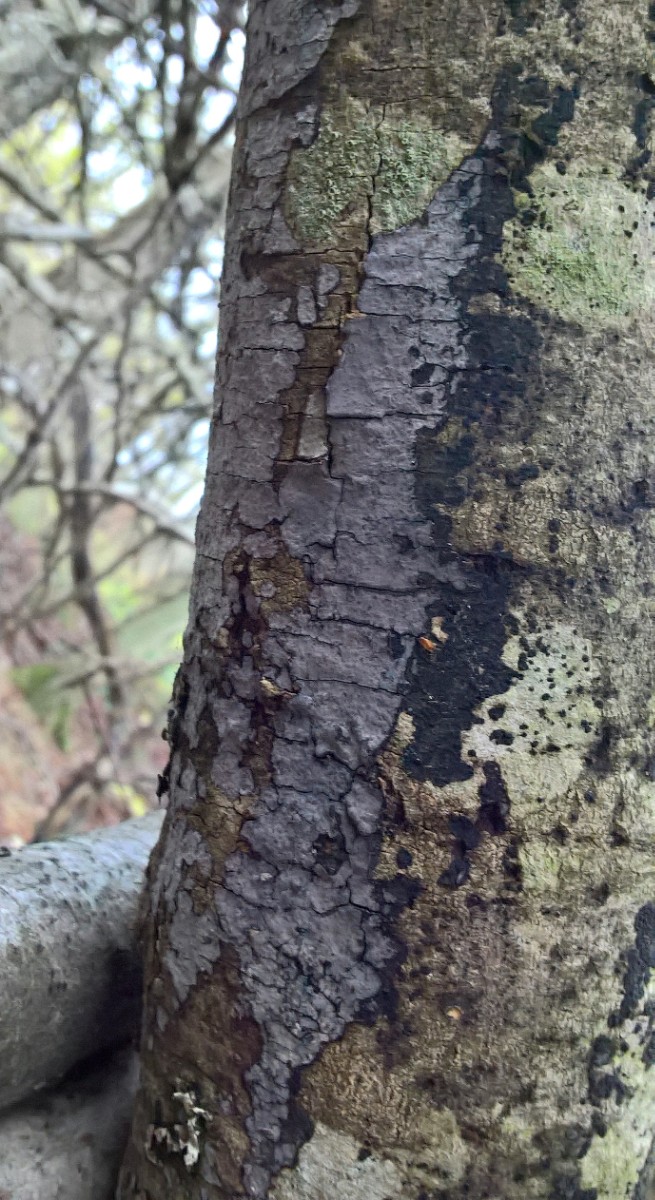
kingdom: Fungi
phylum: Basidiomycota
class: Agaricomycetes
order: Russulales
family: Peniophoraceae
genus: Peniophora
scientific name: Peniophora limitata
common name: mørkrandet voksskind
